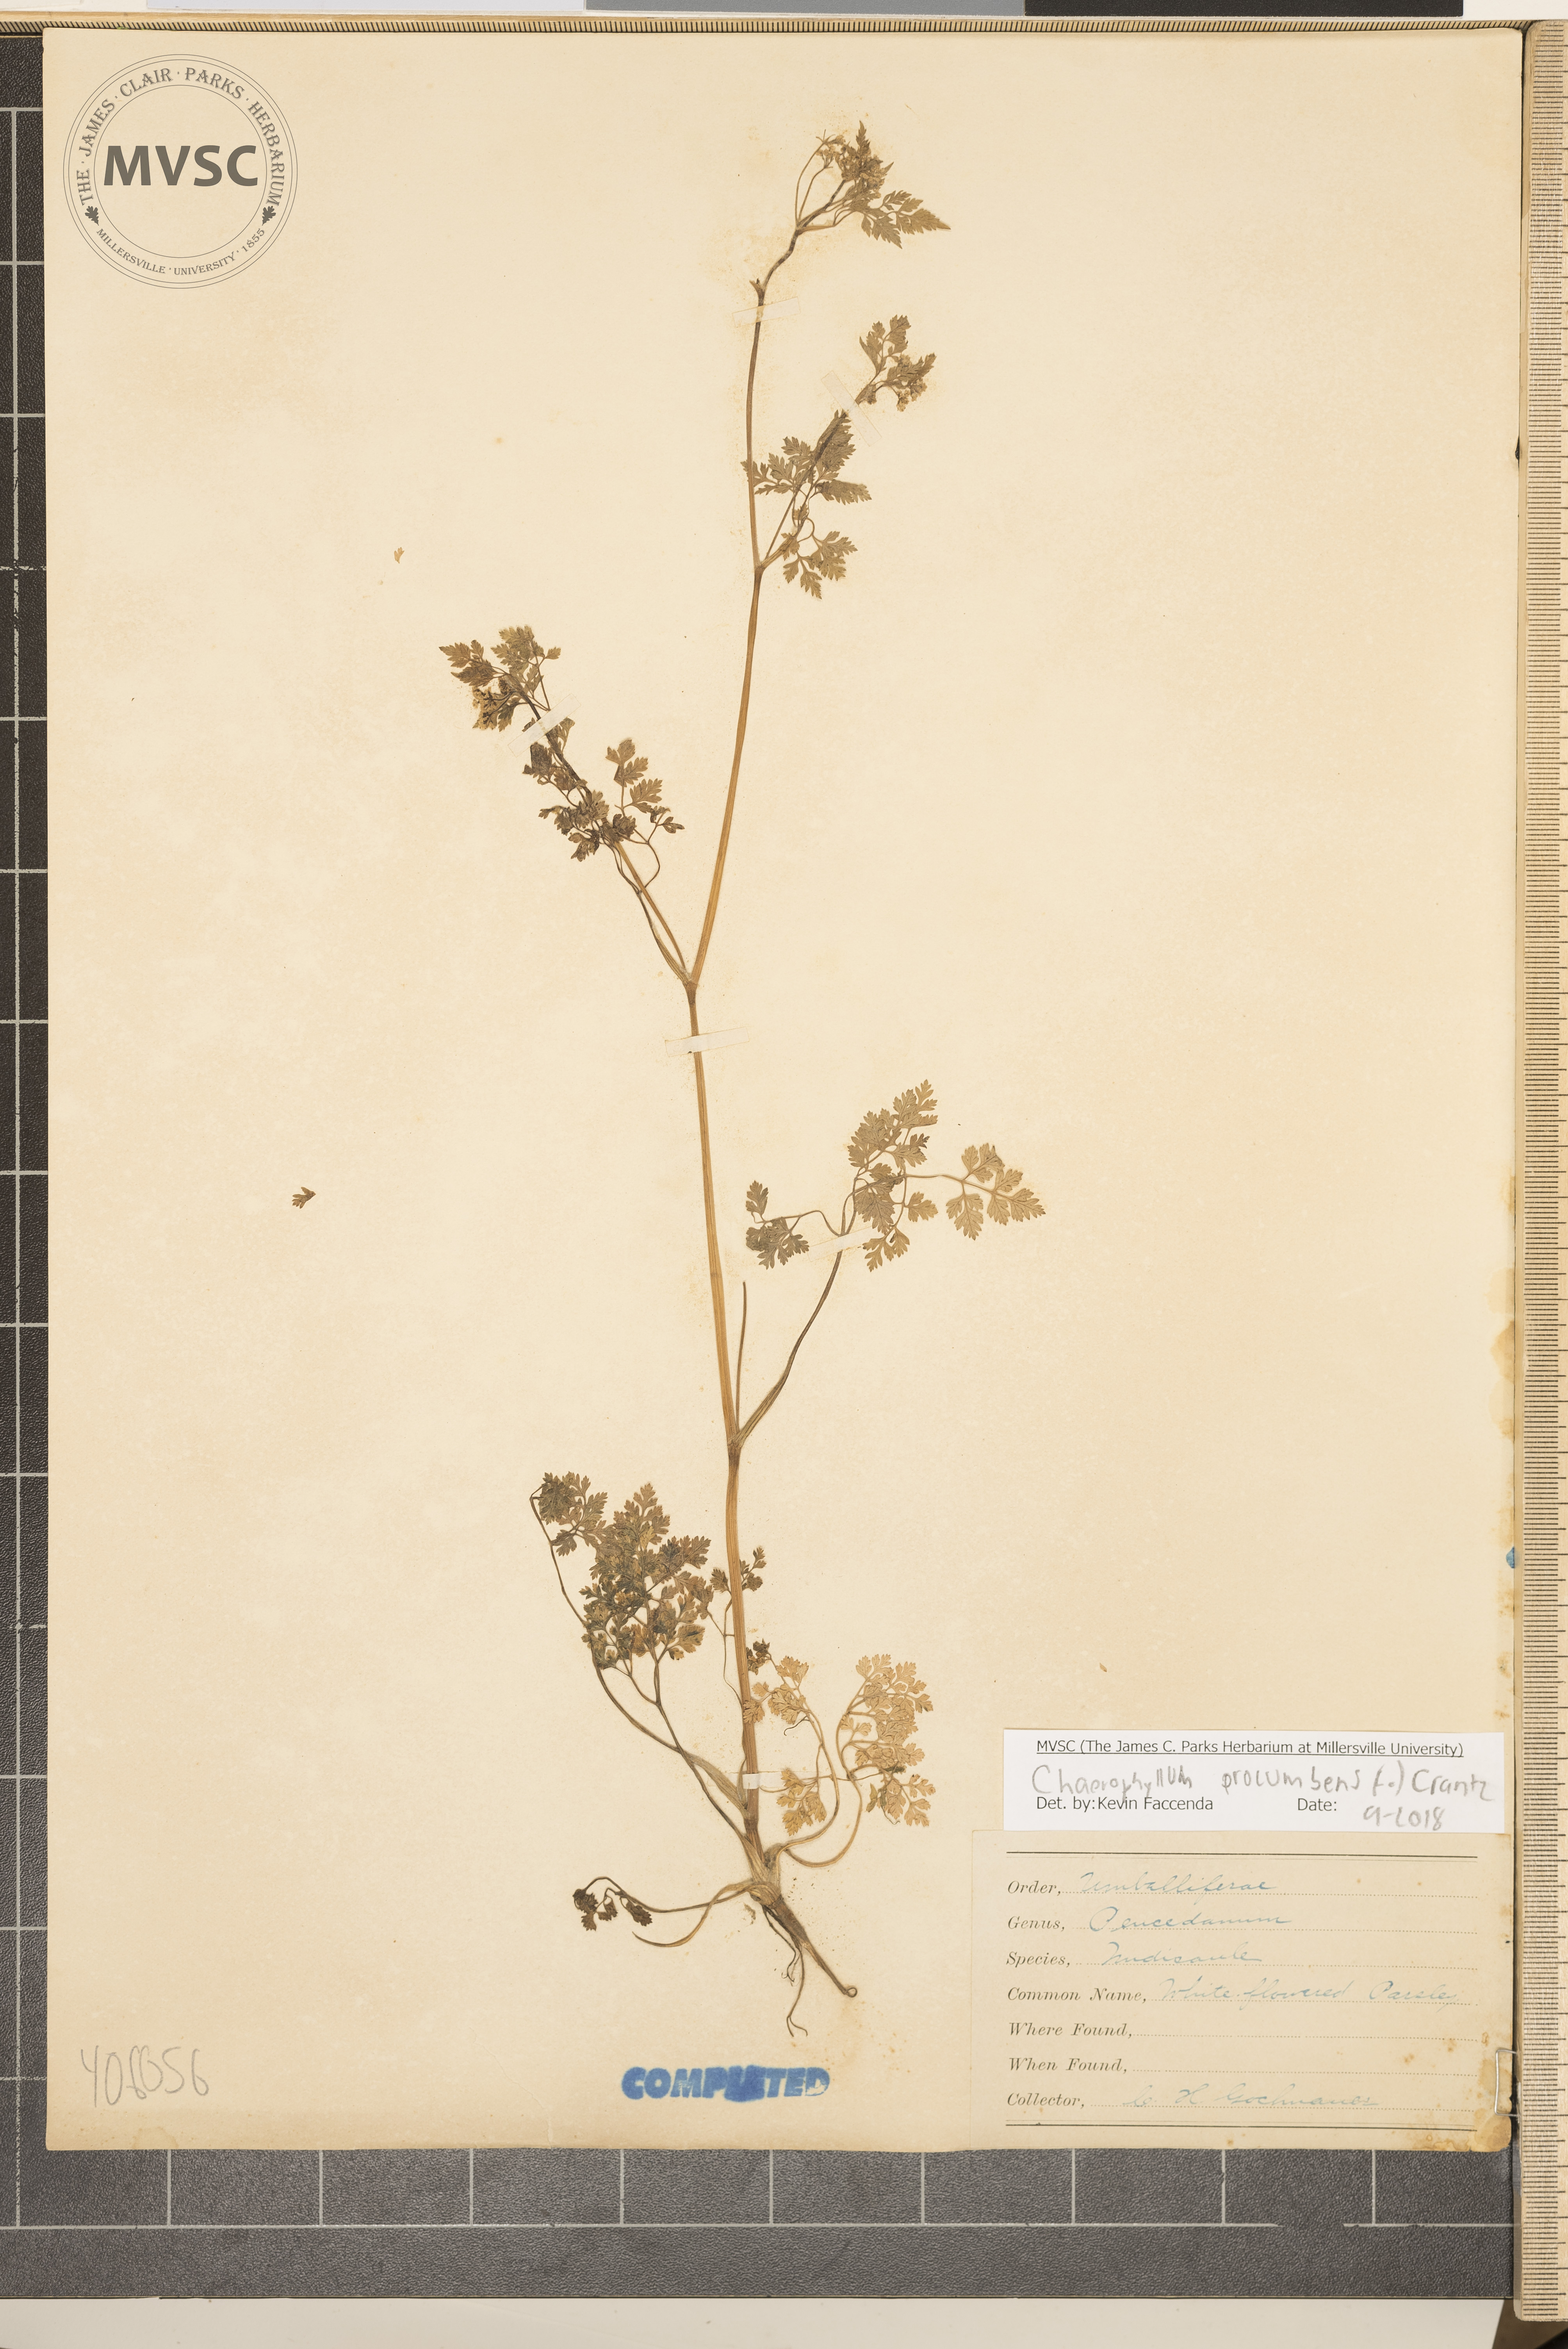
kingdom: Plantae
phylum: Tracheophyta
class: Magnoliopsida
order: Apiales
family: Apiaceae
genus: Chaerophyllum
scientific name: Chaerophyllum procumbens
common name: Spreading chervil
